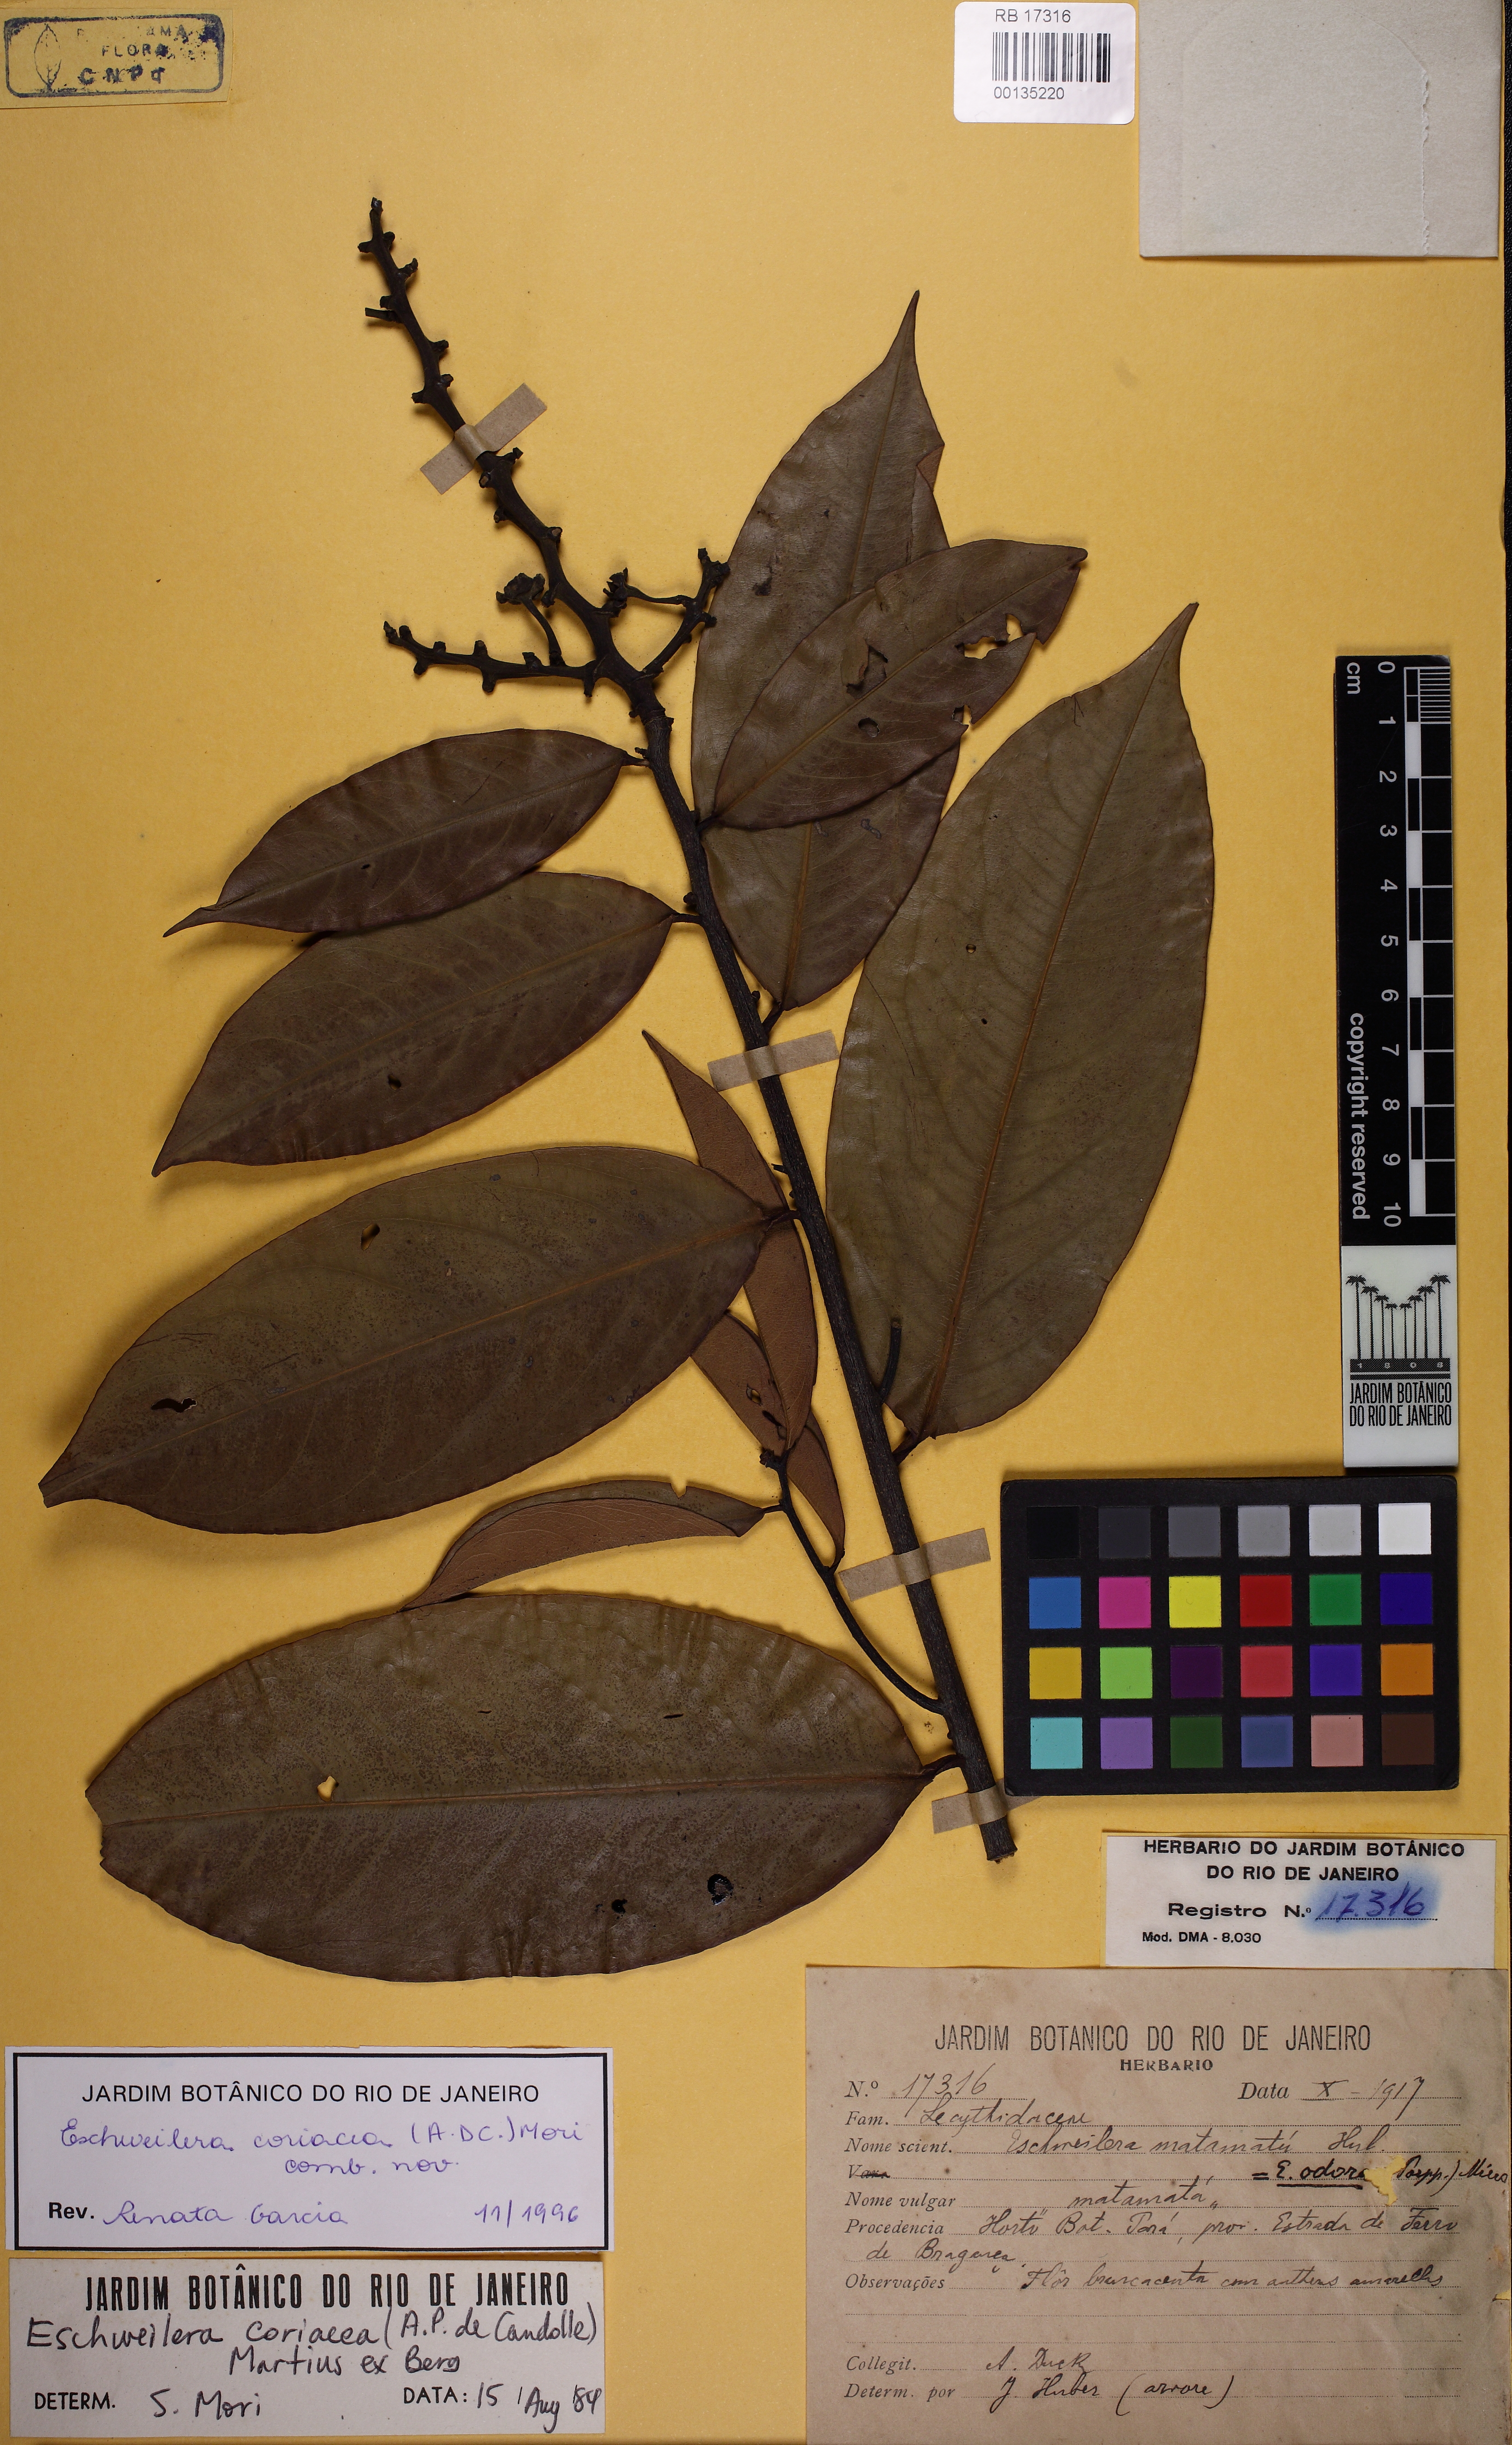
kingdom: Plantae
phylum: Tracheophyta
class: Magnoliopsida
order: Ericales
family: Lecythidaceae
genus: Eschweilera
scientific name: Eschweilera coriacea
